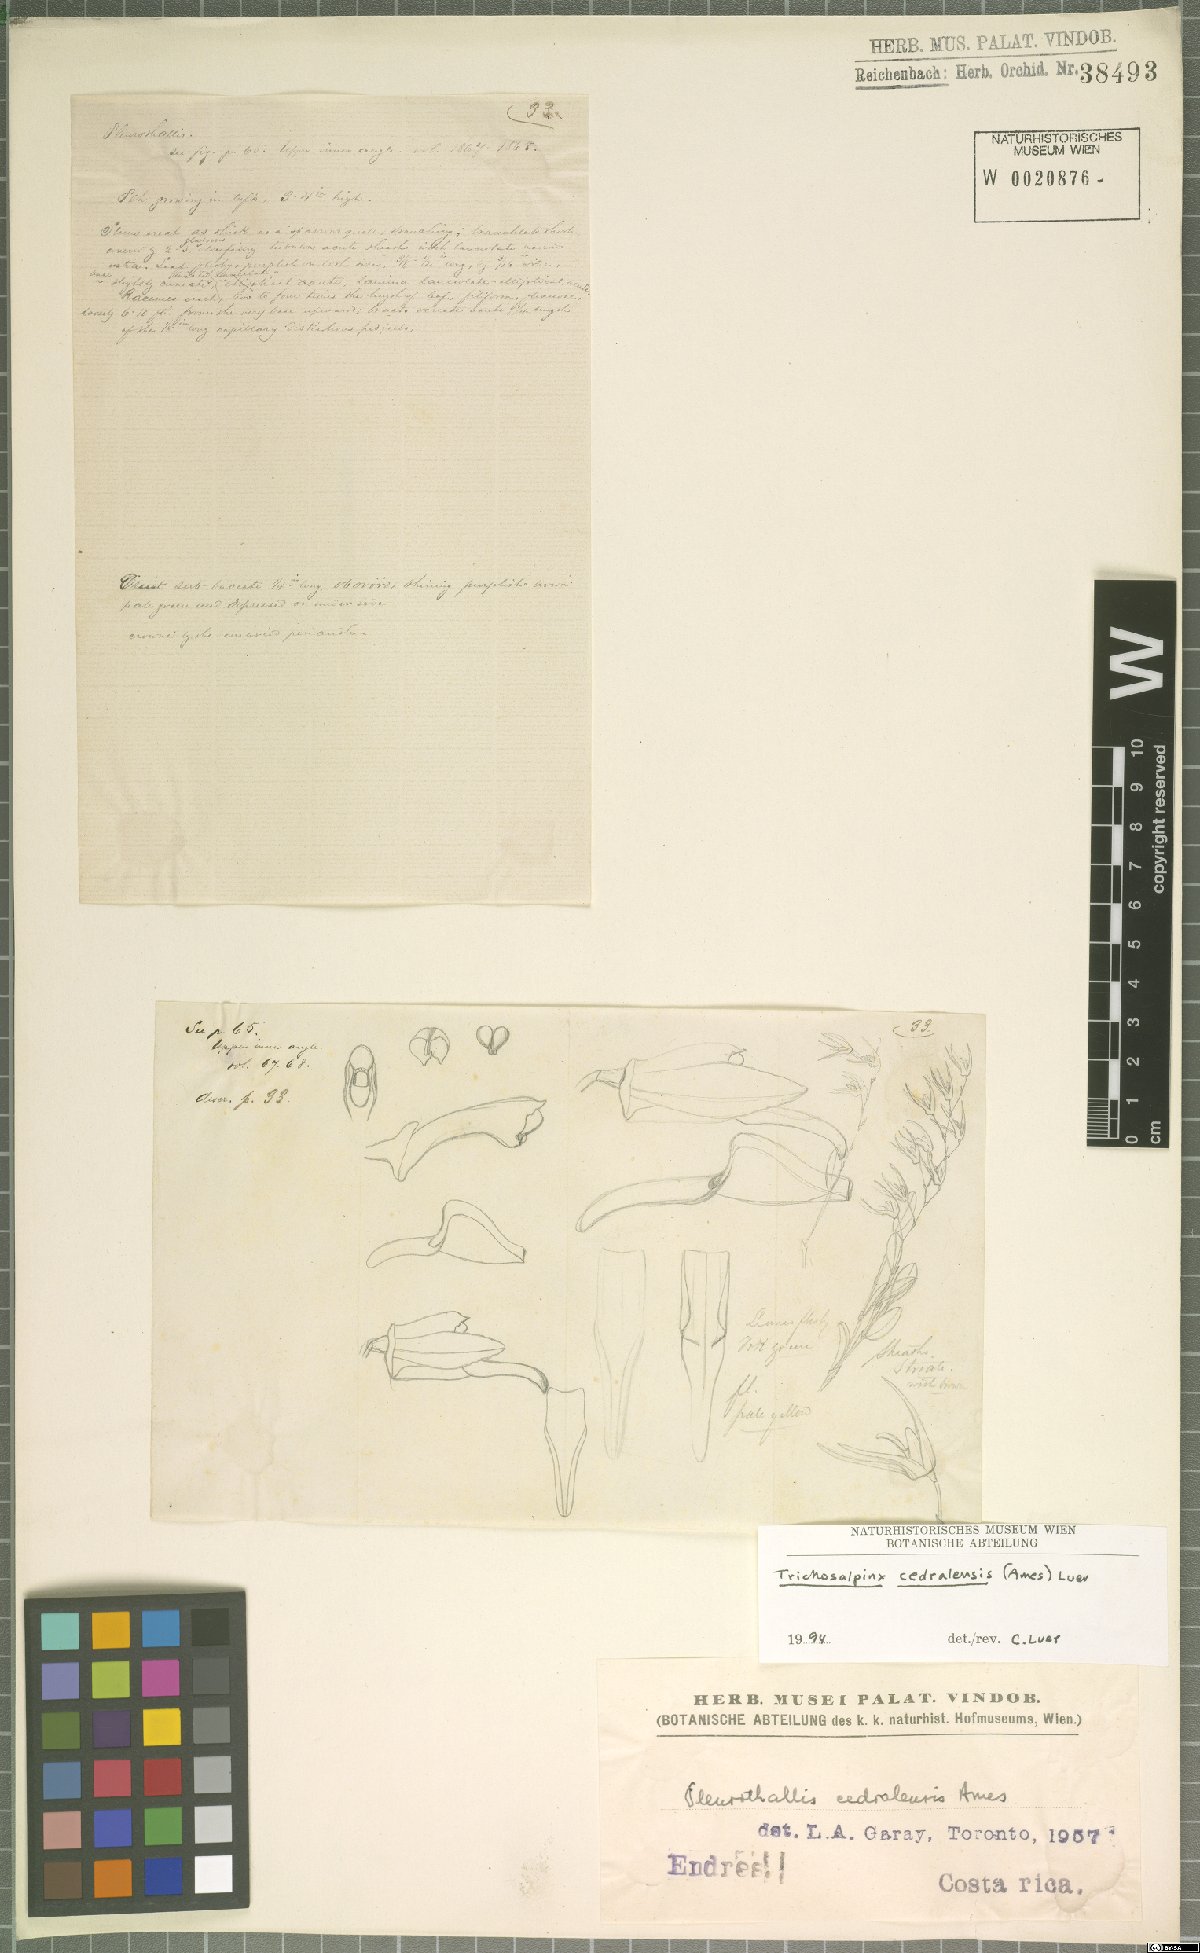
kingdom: Plantae
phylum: Tracheophyta
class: Liliopsida
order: Asparagales
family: Orchidaceae
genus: Trichosalpinx
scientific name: Trichosalpinx cedralensis
